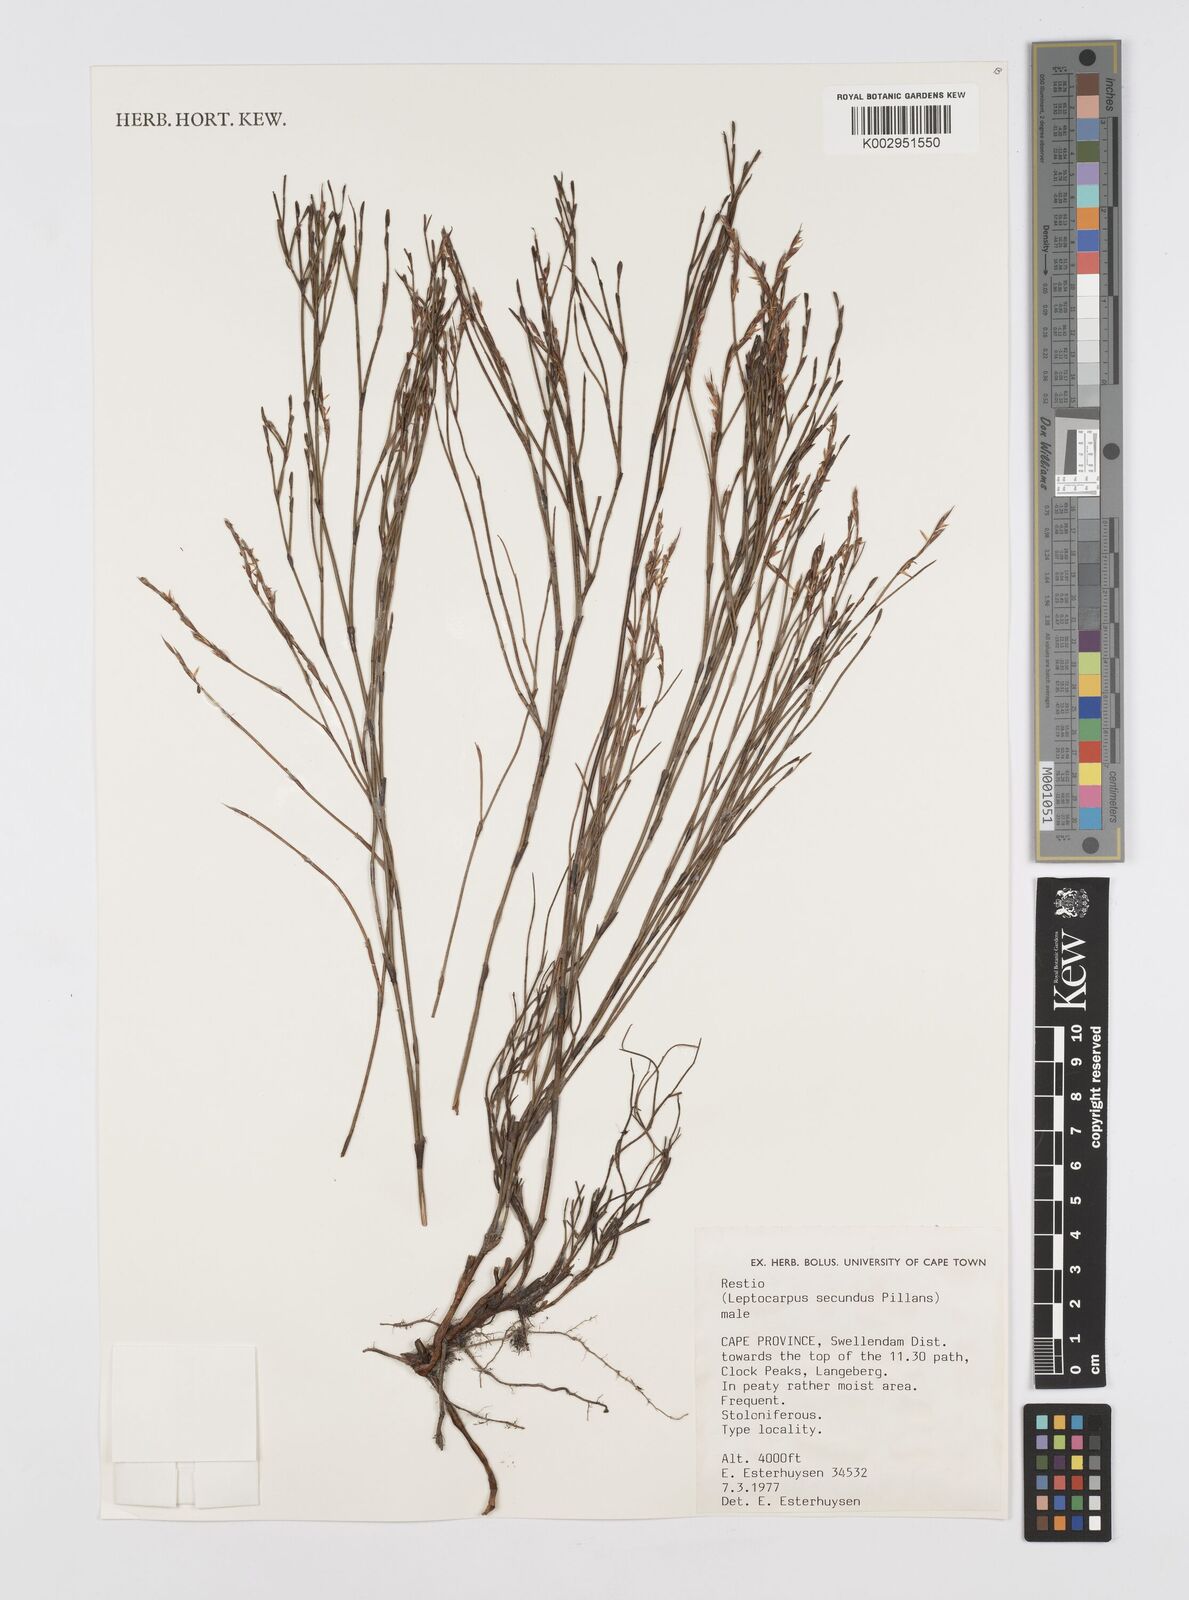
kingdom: Plantae
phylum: Tracheophyta
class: Liliopsida
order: Poales
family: Restionaceae
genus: Restio
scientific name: Restio secundus
